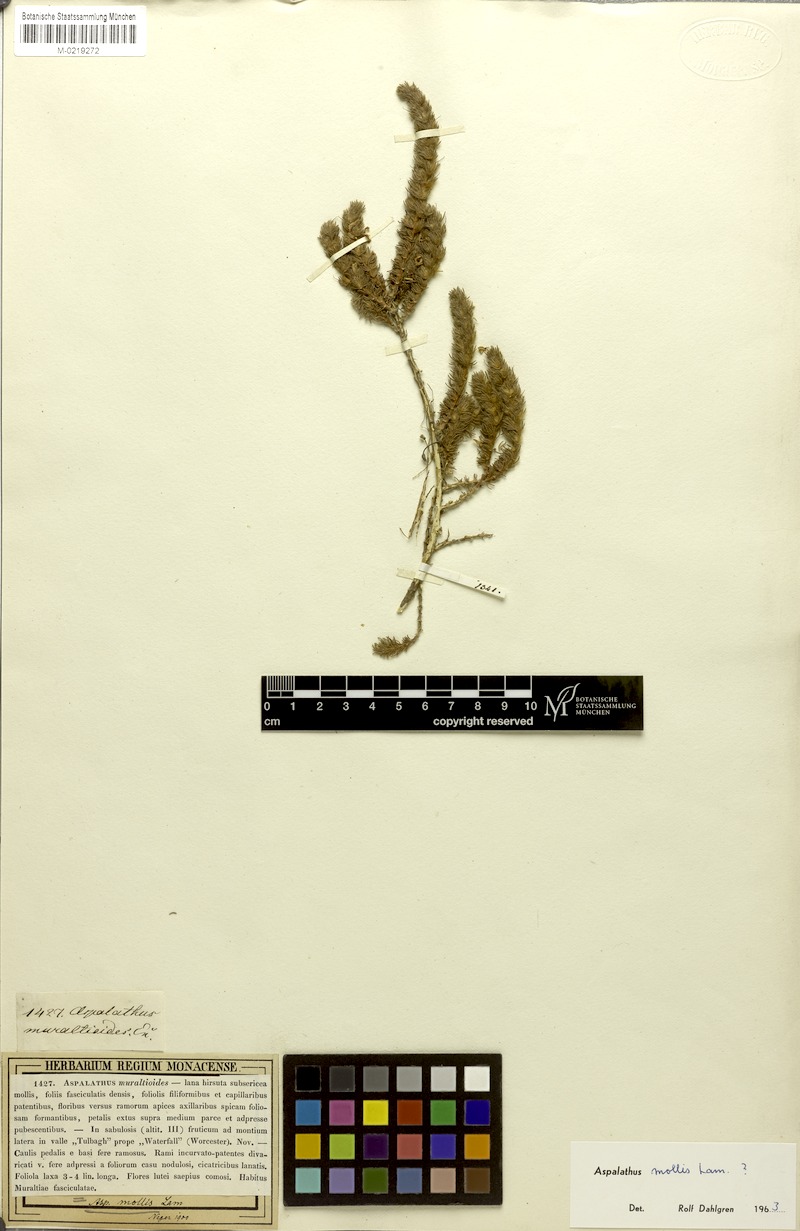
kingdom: Plantae
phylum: Tracheophyta
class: Magnoliopsida
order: Fabales
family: Fabaceae
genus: Aspalathus
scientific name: Aspalathus muraltioides
